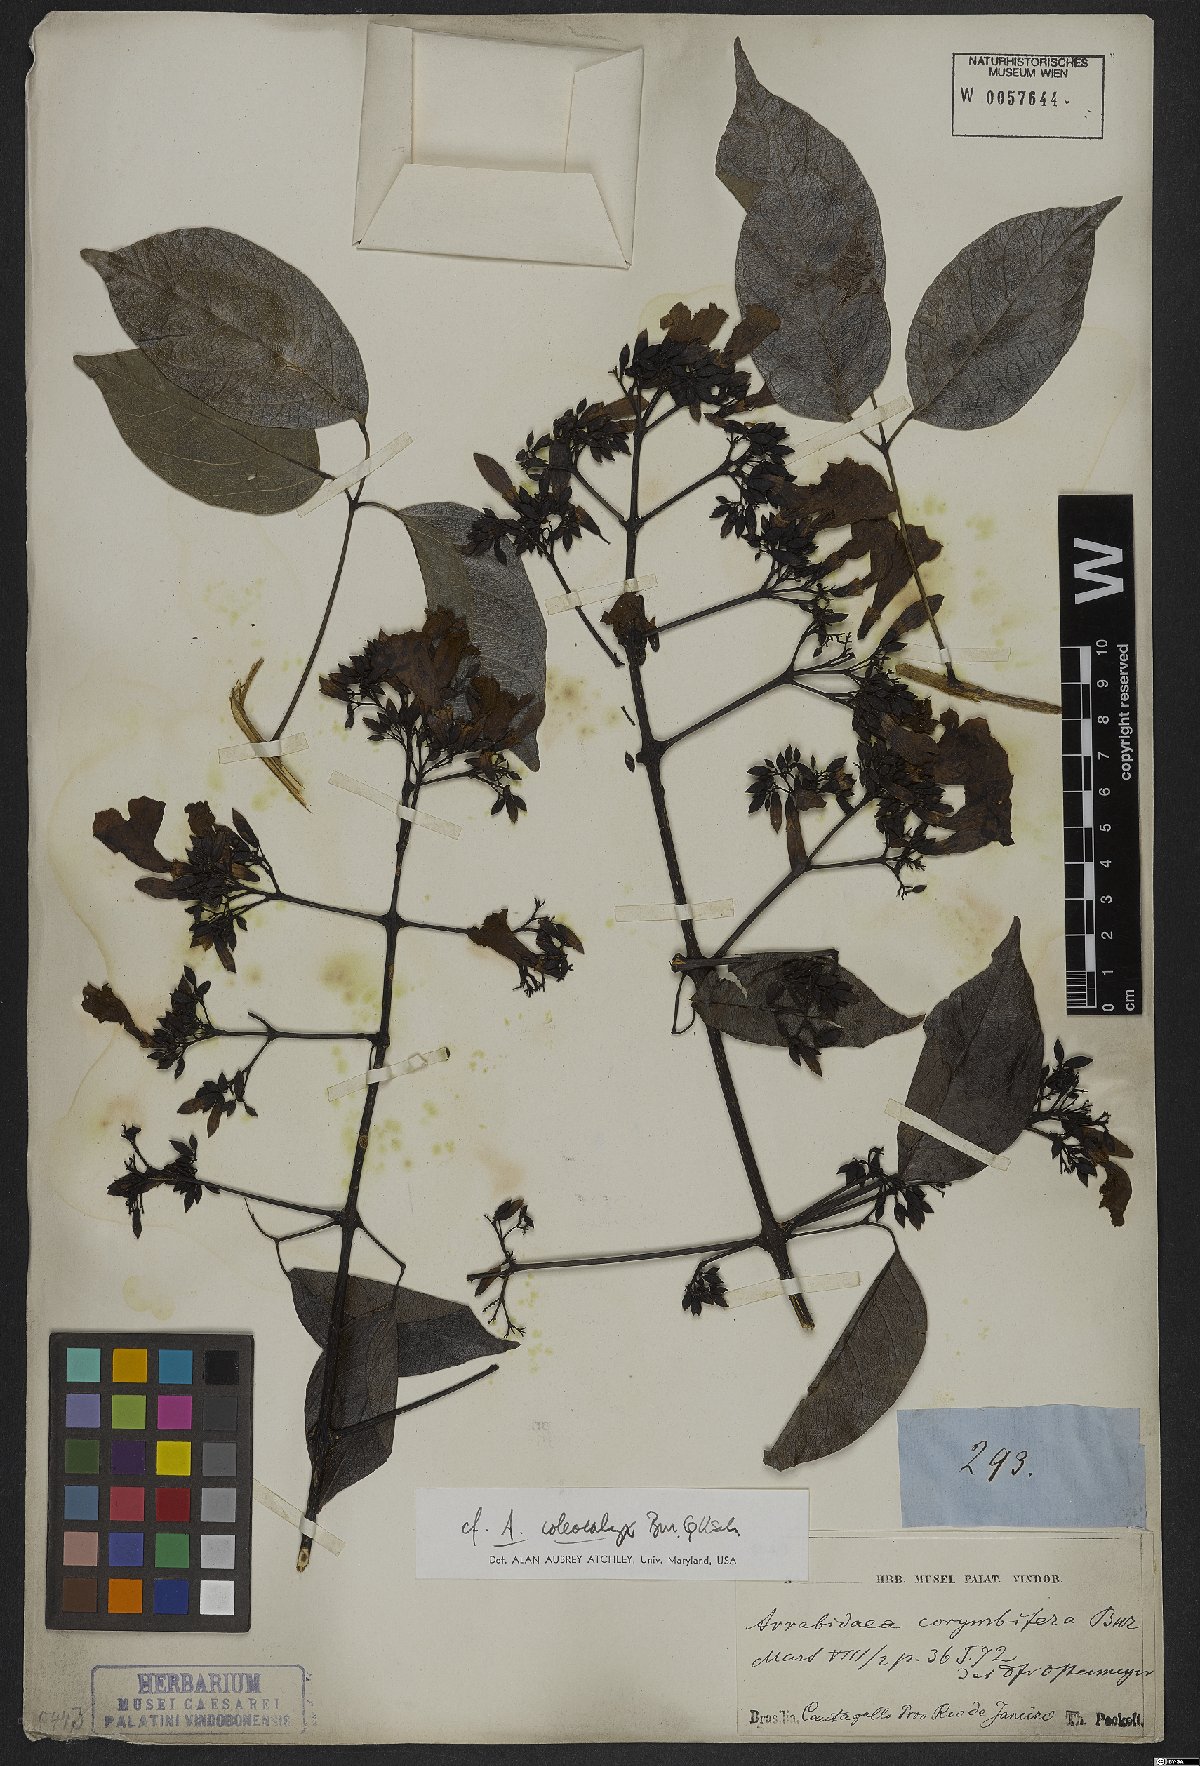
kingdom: Plantae
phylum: Tracheophyta
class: Magnoliopsida
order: Lamiales
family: Bignoniaceae
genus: Fridericia
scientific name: Fridericia caudigera
